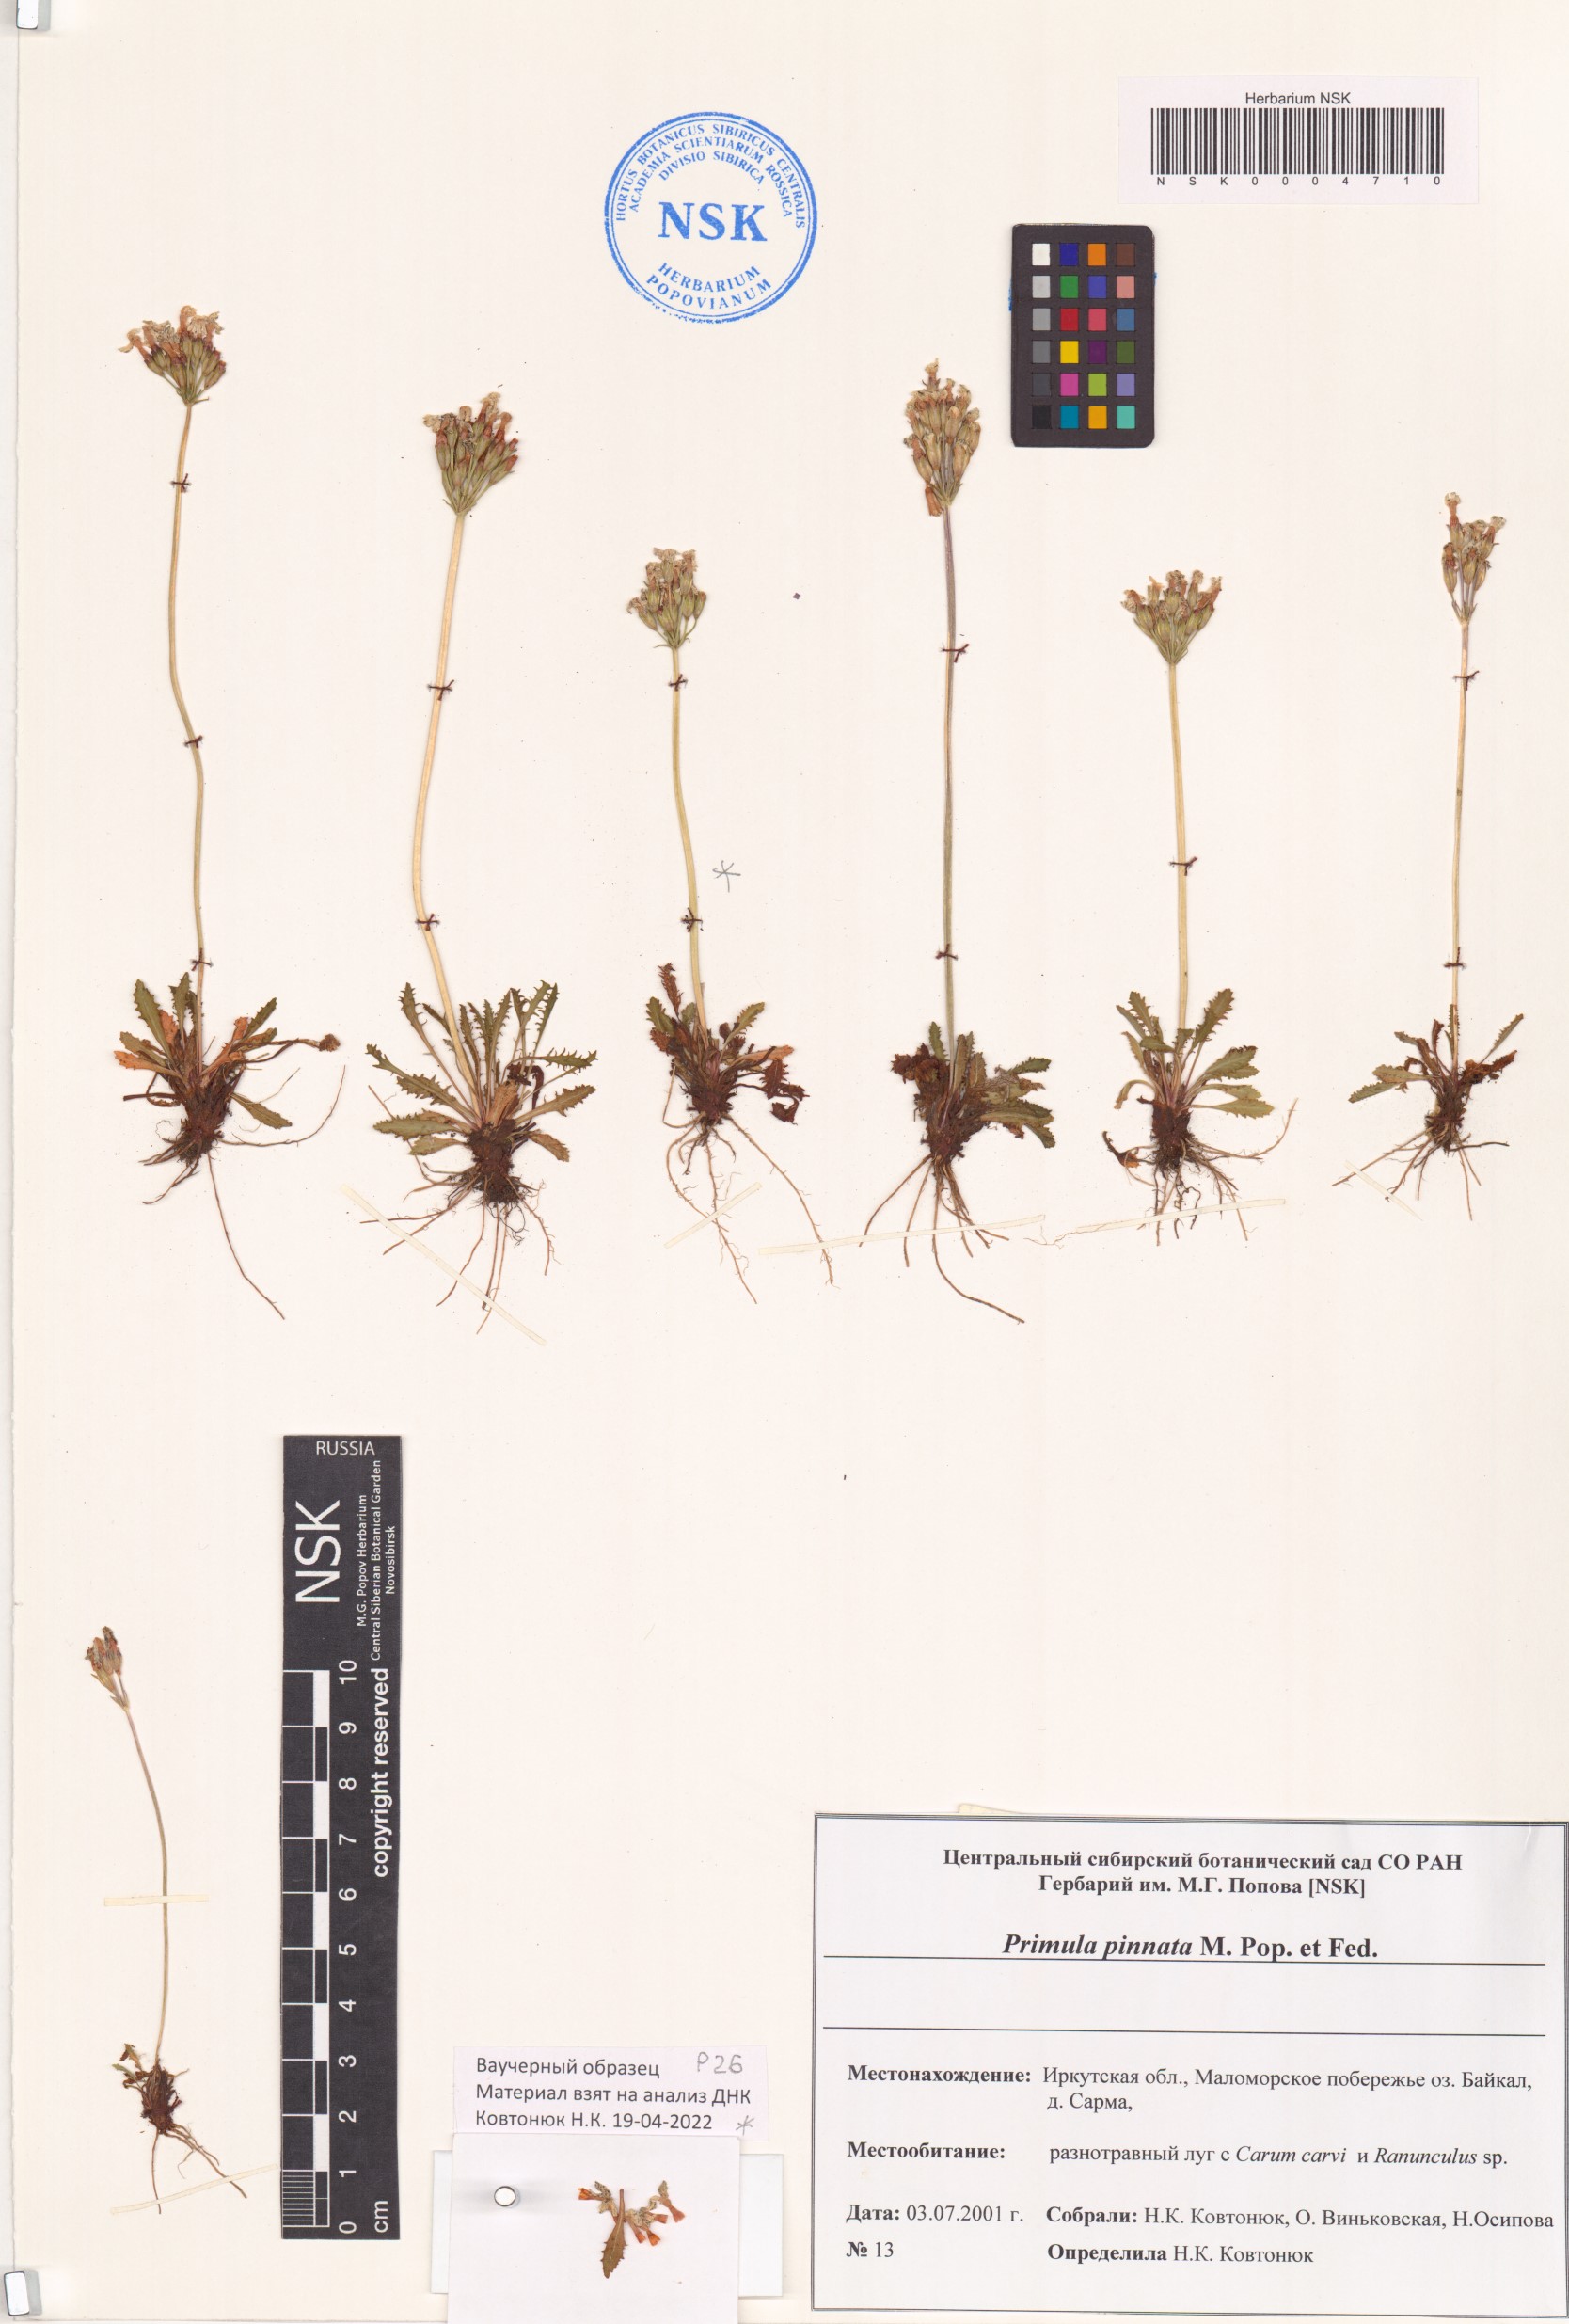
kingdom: Plantae
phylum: Tracheophyta
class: Magnoliopsida
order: Ericales
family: Primulaceae
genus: Primula
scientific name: Primula pinnata
